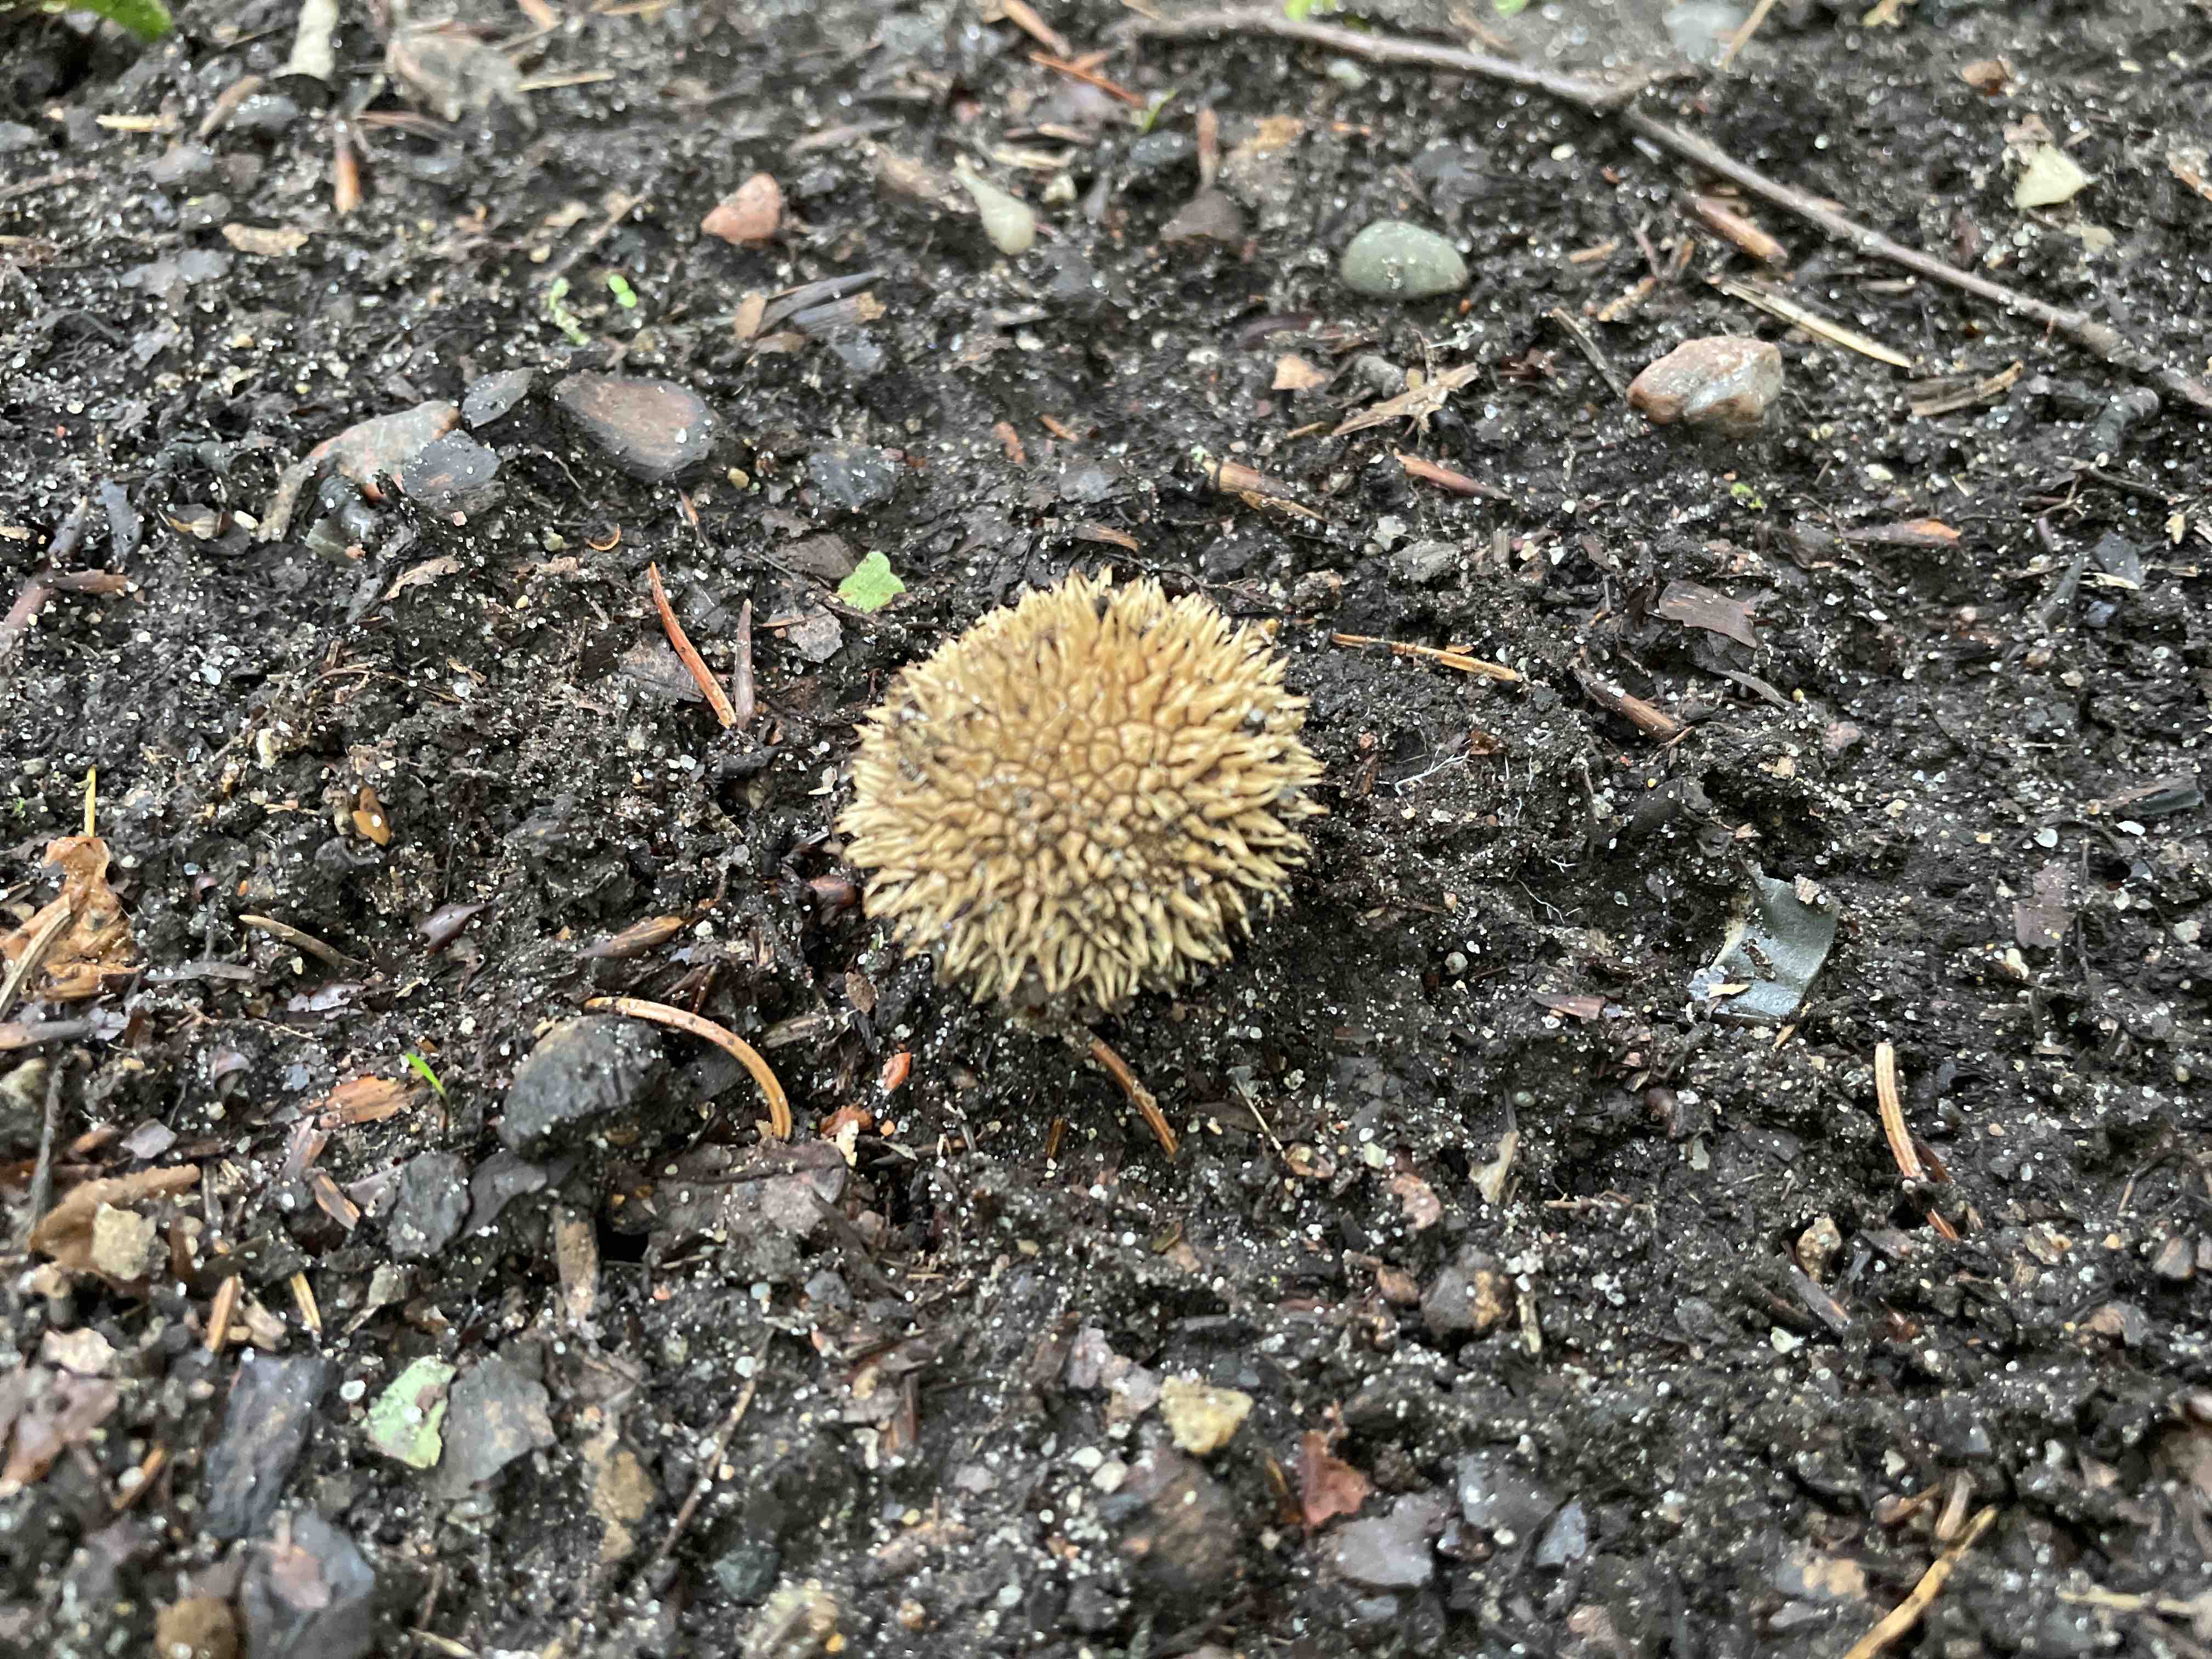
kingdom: Fungi
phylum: Basidiomycota
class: Agaricomycetes
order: Agaricales
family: Lycoperdaceae
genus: Lycoperdon
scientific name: Lycoperdon echinatum
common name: pindsvine-støvbold
